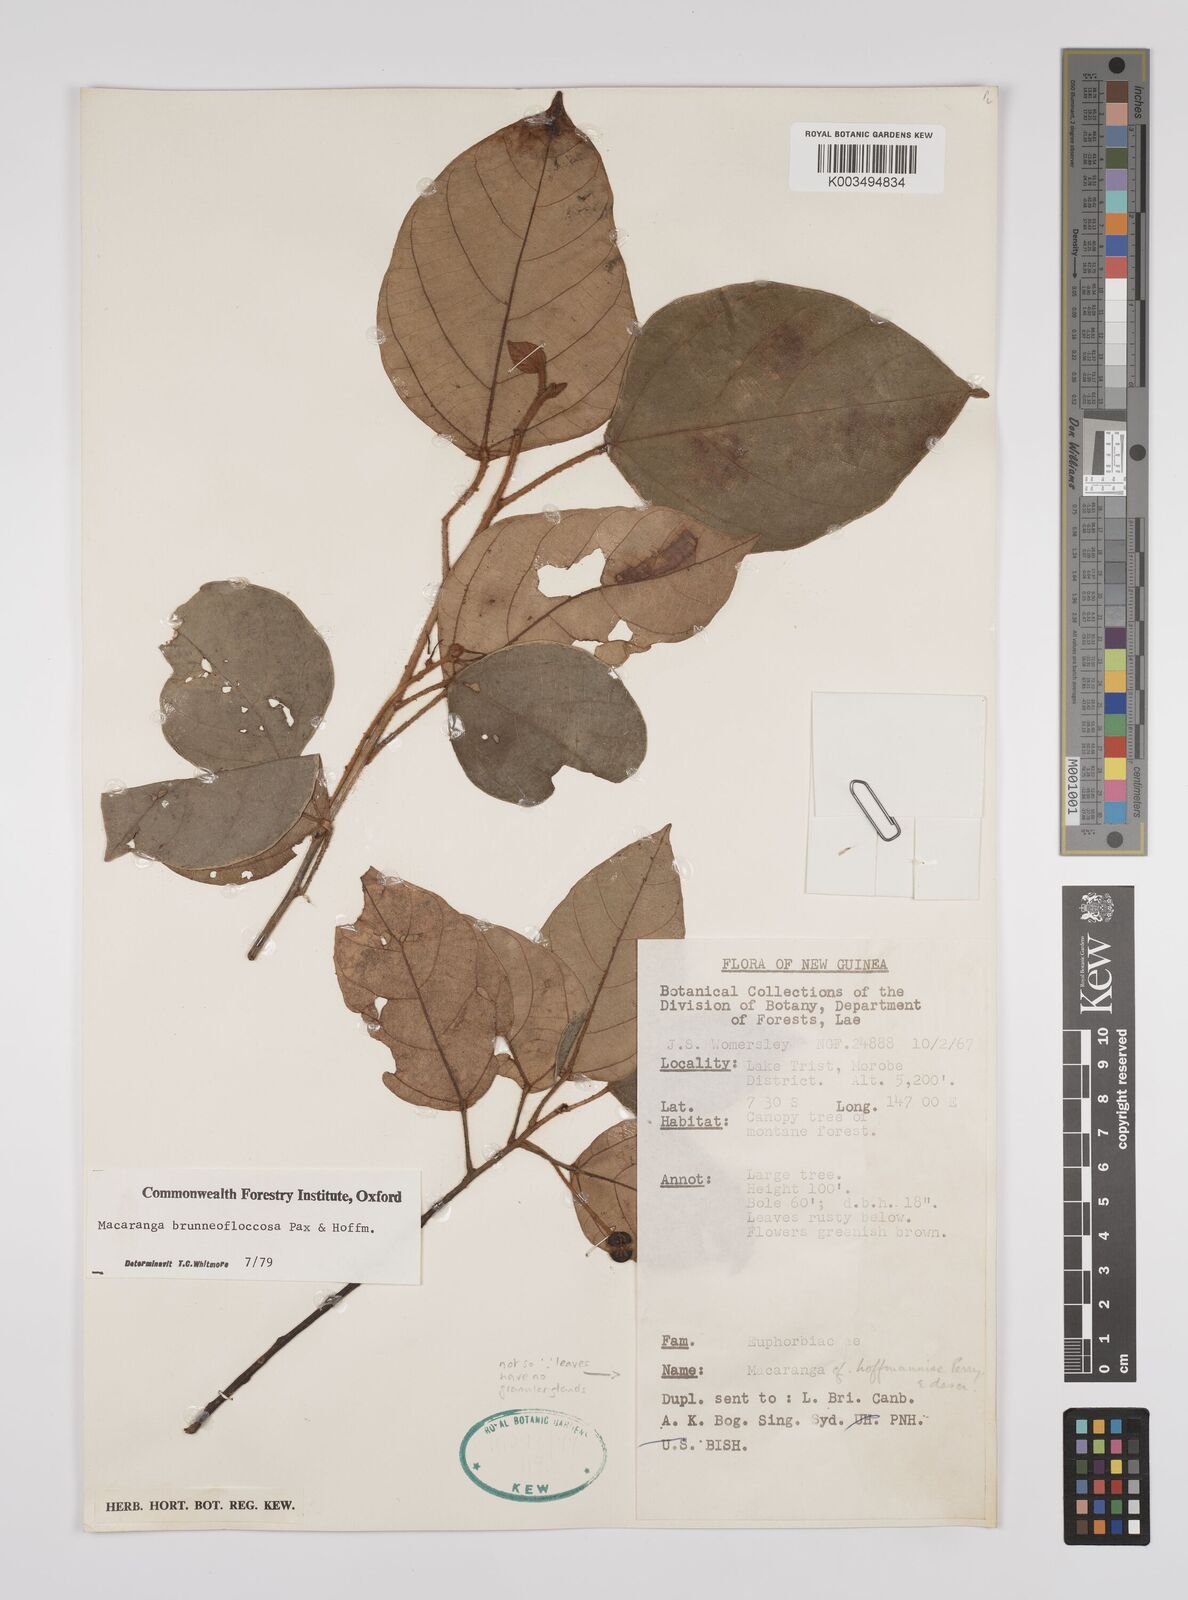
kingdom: Plantae
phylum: Tracheophyta
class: Magnoliopsida
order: Malpighiales
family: Euphorbiaceae
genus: Macaranga
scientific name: Macaranga brunneofloccosa
